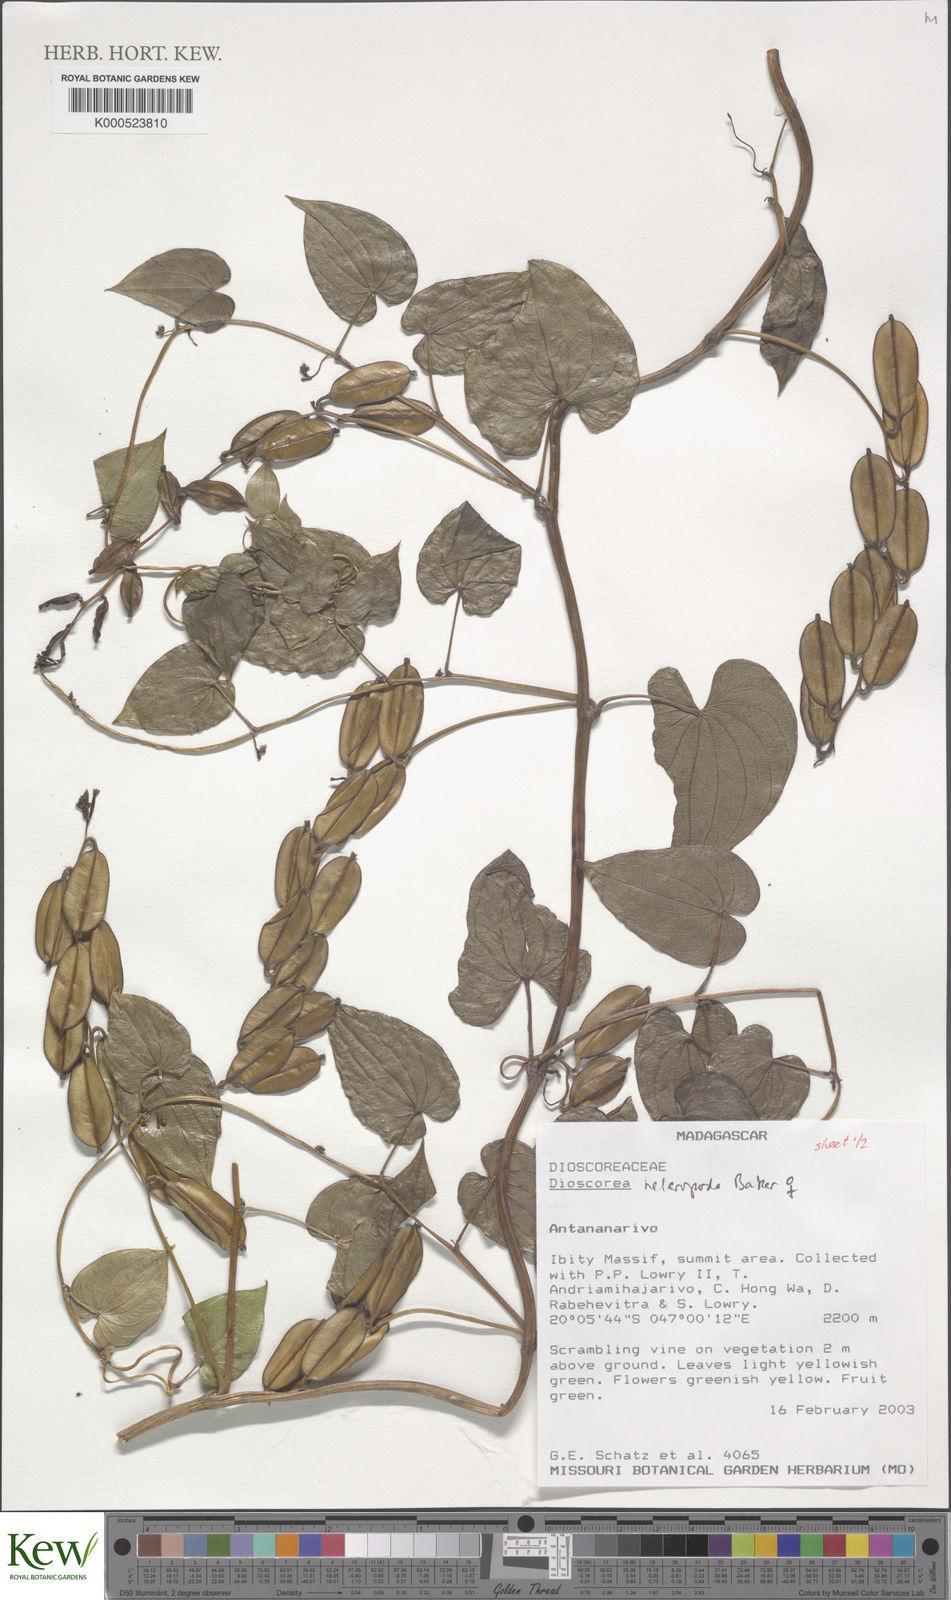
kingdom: Plantae
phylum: Tracheophyta
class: Liliopsida
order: Dioscoreales
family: Dioscoreaceae
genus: Dioscorea
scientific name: Dioscorea heteropoda
